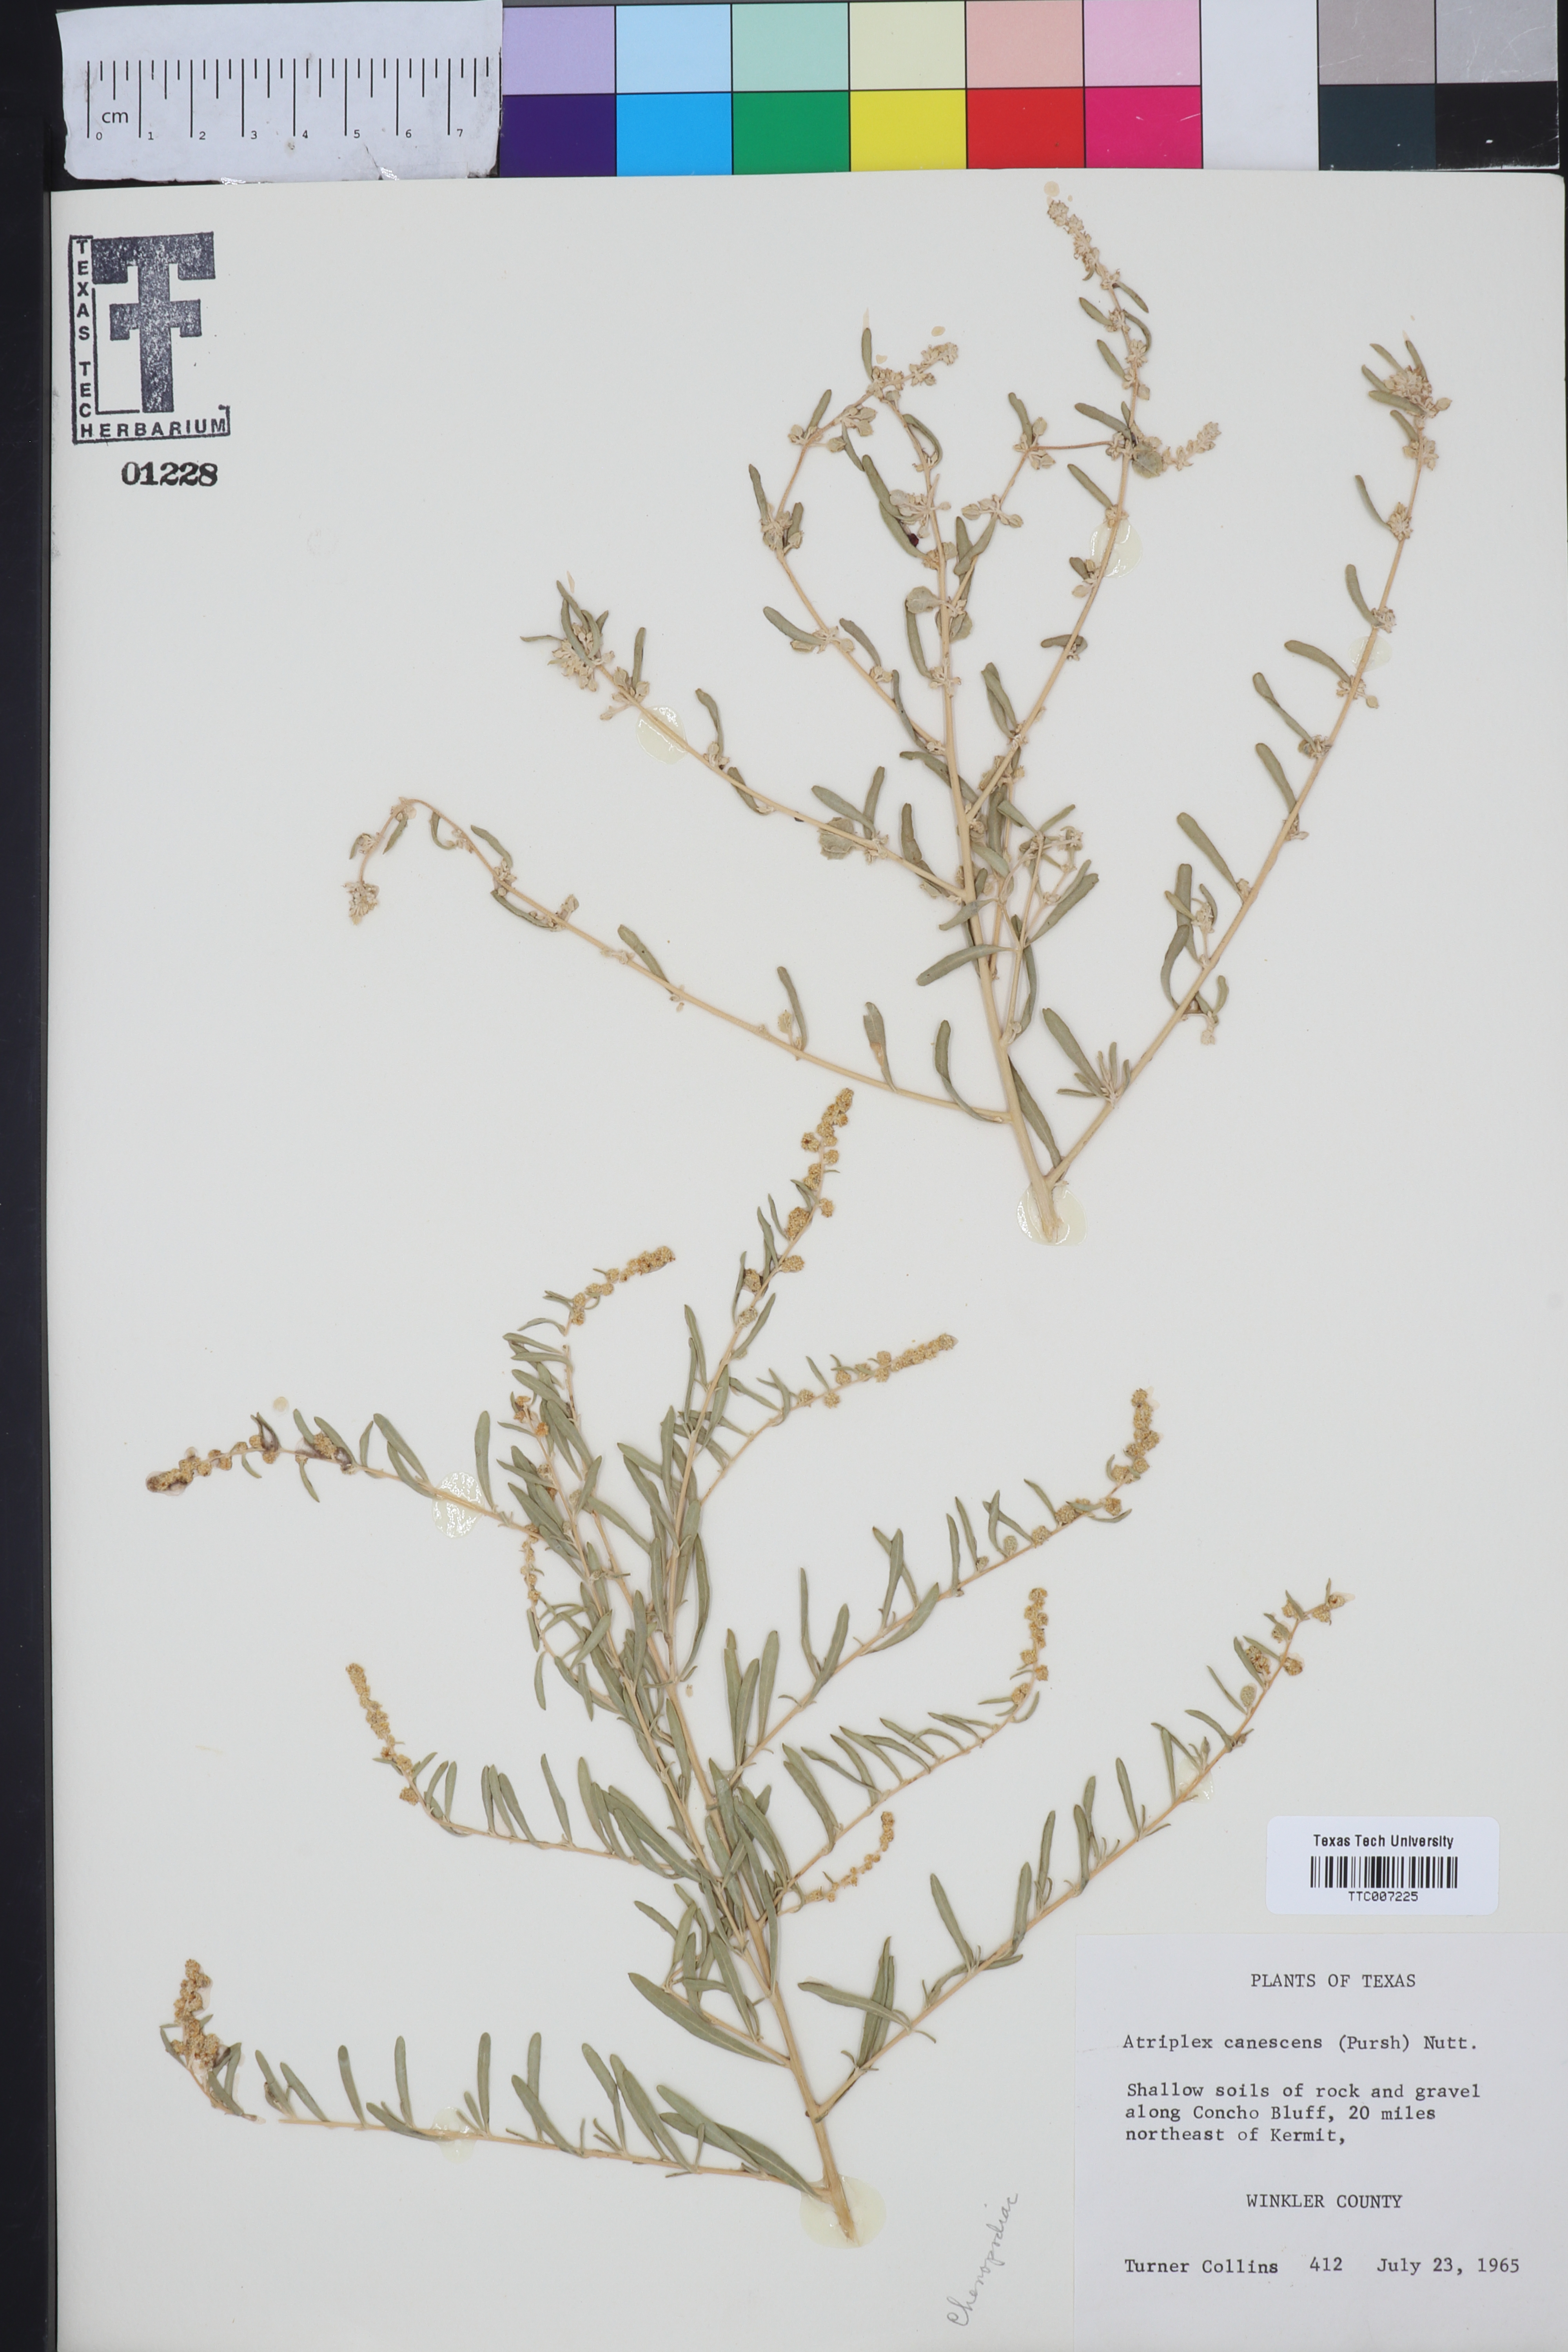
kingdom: Plantae
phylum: Tracheophyta
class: Magnoliopsida
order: Caryophyllales
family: Amaranthaceae
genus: Atriplex
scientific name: Atriplex canescens
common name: Four-wing saltbush
